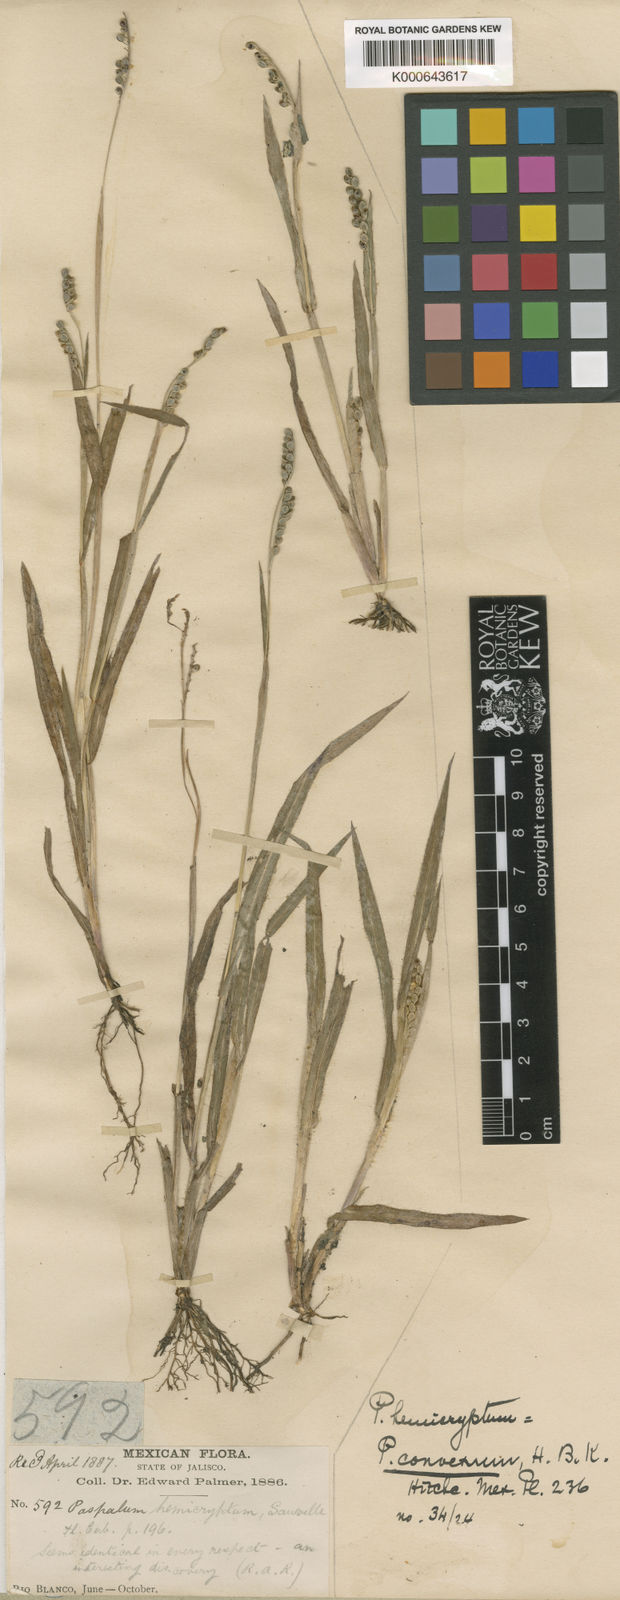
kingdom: Plantae
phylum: Tracheophyta
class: Liliopsida
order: Poales
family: Poaceae
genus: Paspalum
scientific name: Paspalum
